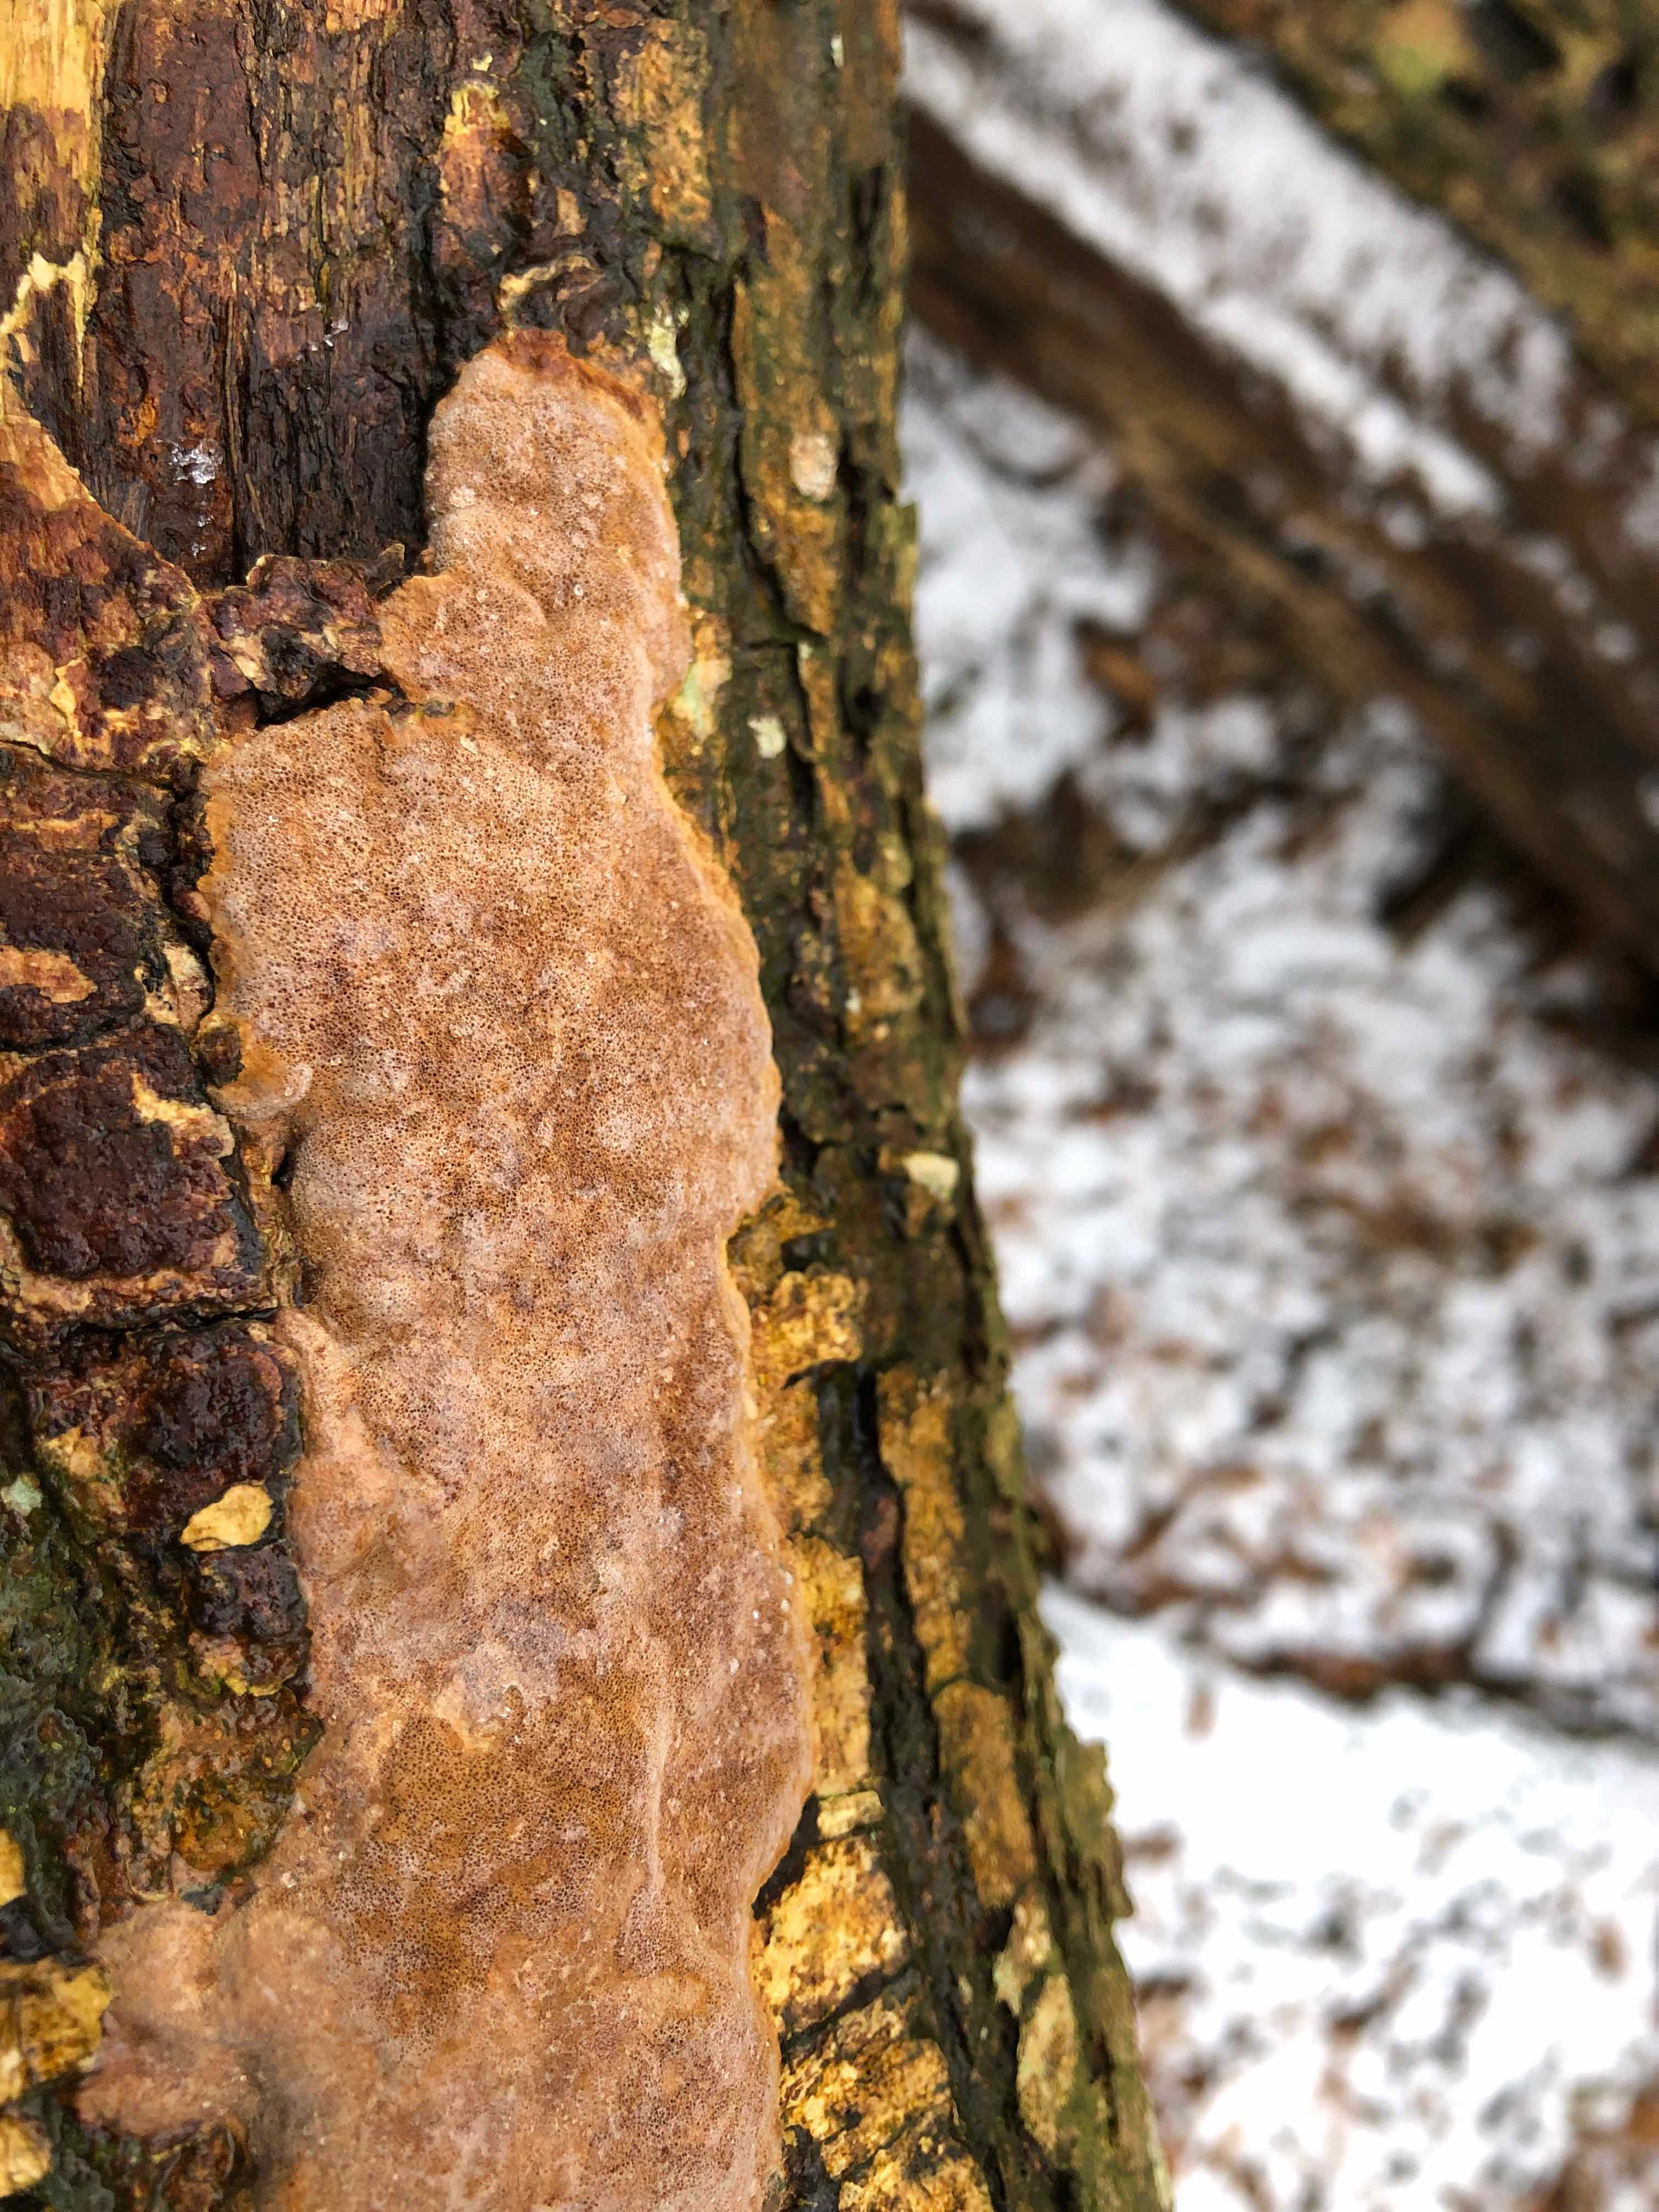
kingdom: Fungi
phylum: Basidiomycota
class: Agaricomycetes
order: Hymenochaetales
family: Hymenochaetaceae
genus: Fuscoporia
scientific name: Fuscoporia ferrea
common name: skorpe-ildporesvamp
